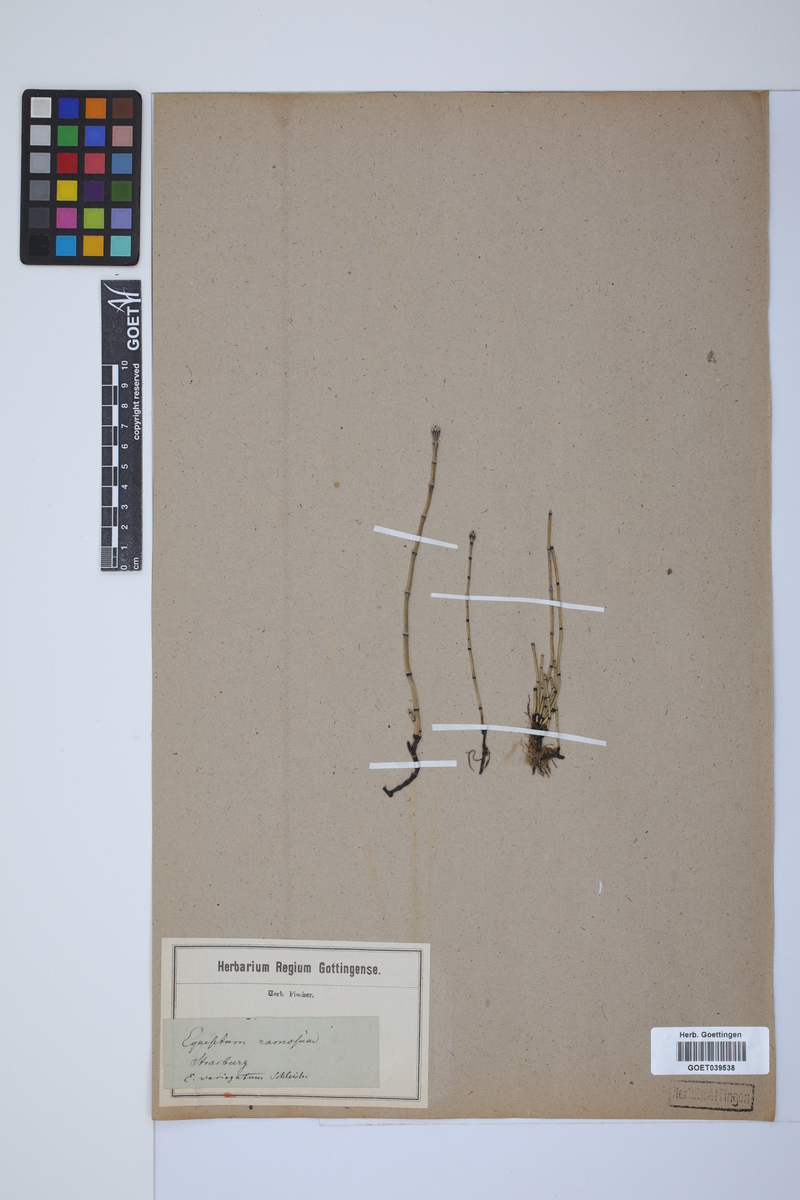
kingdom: Plantae
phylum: Tracheophyta
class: Polypodiopsida
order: Equisetales
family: Equisetaceae
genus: Equisetum
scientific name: Equisetum variegatum
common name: Variegated horsetail
